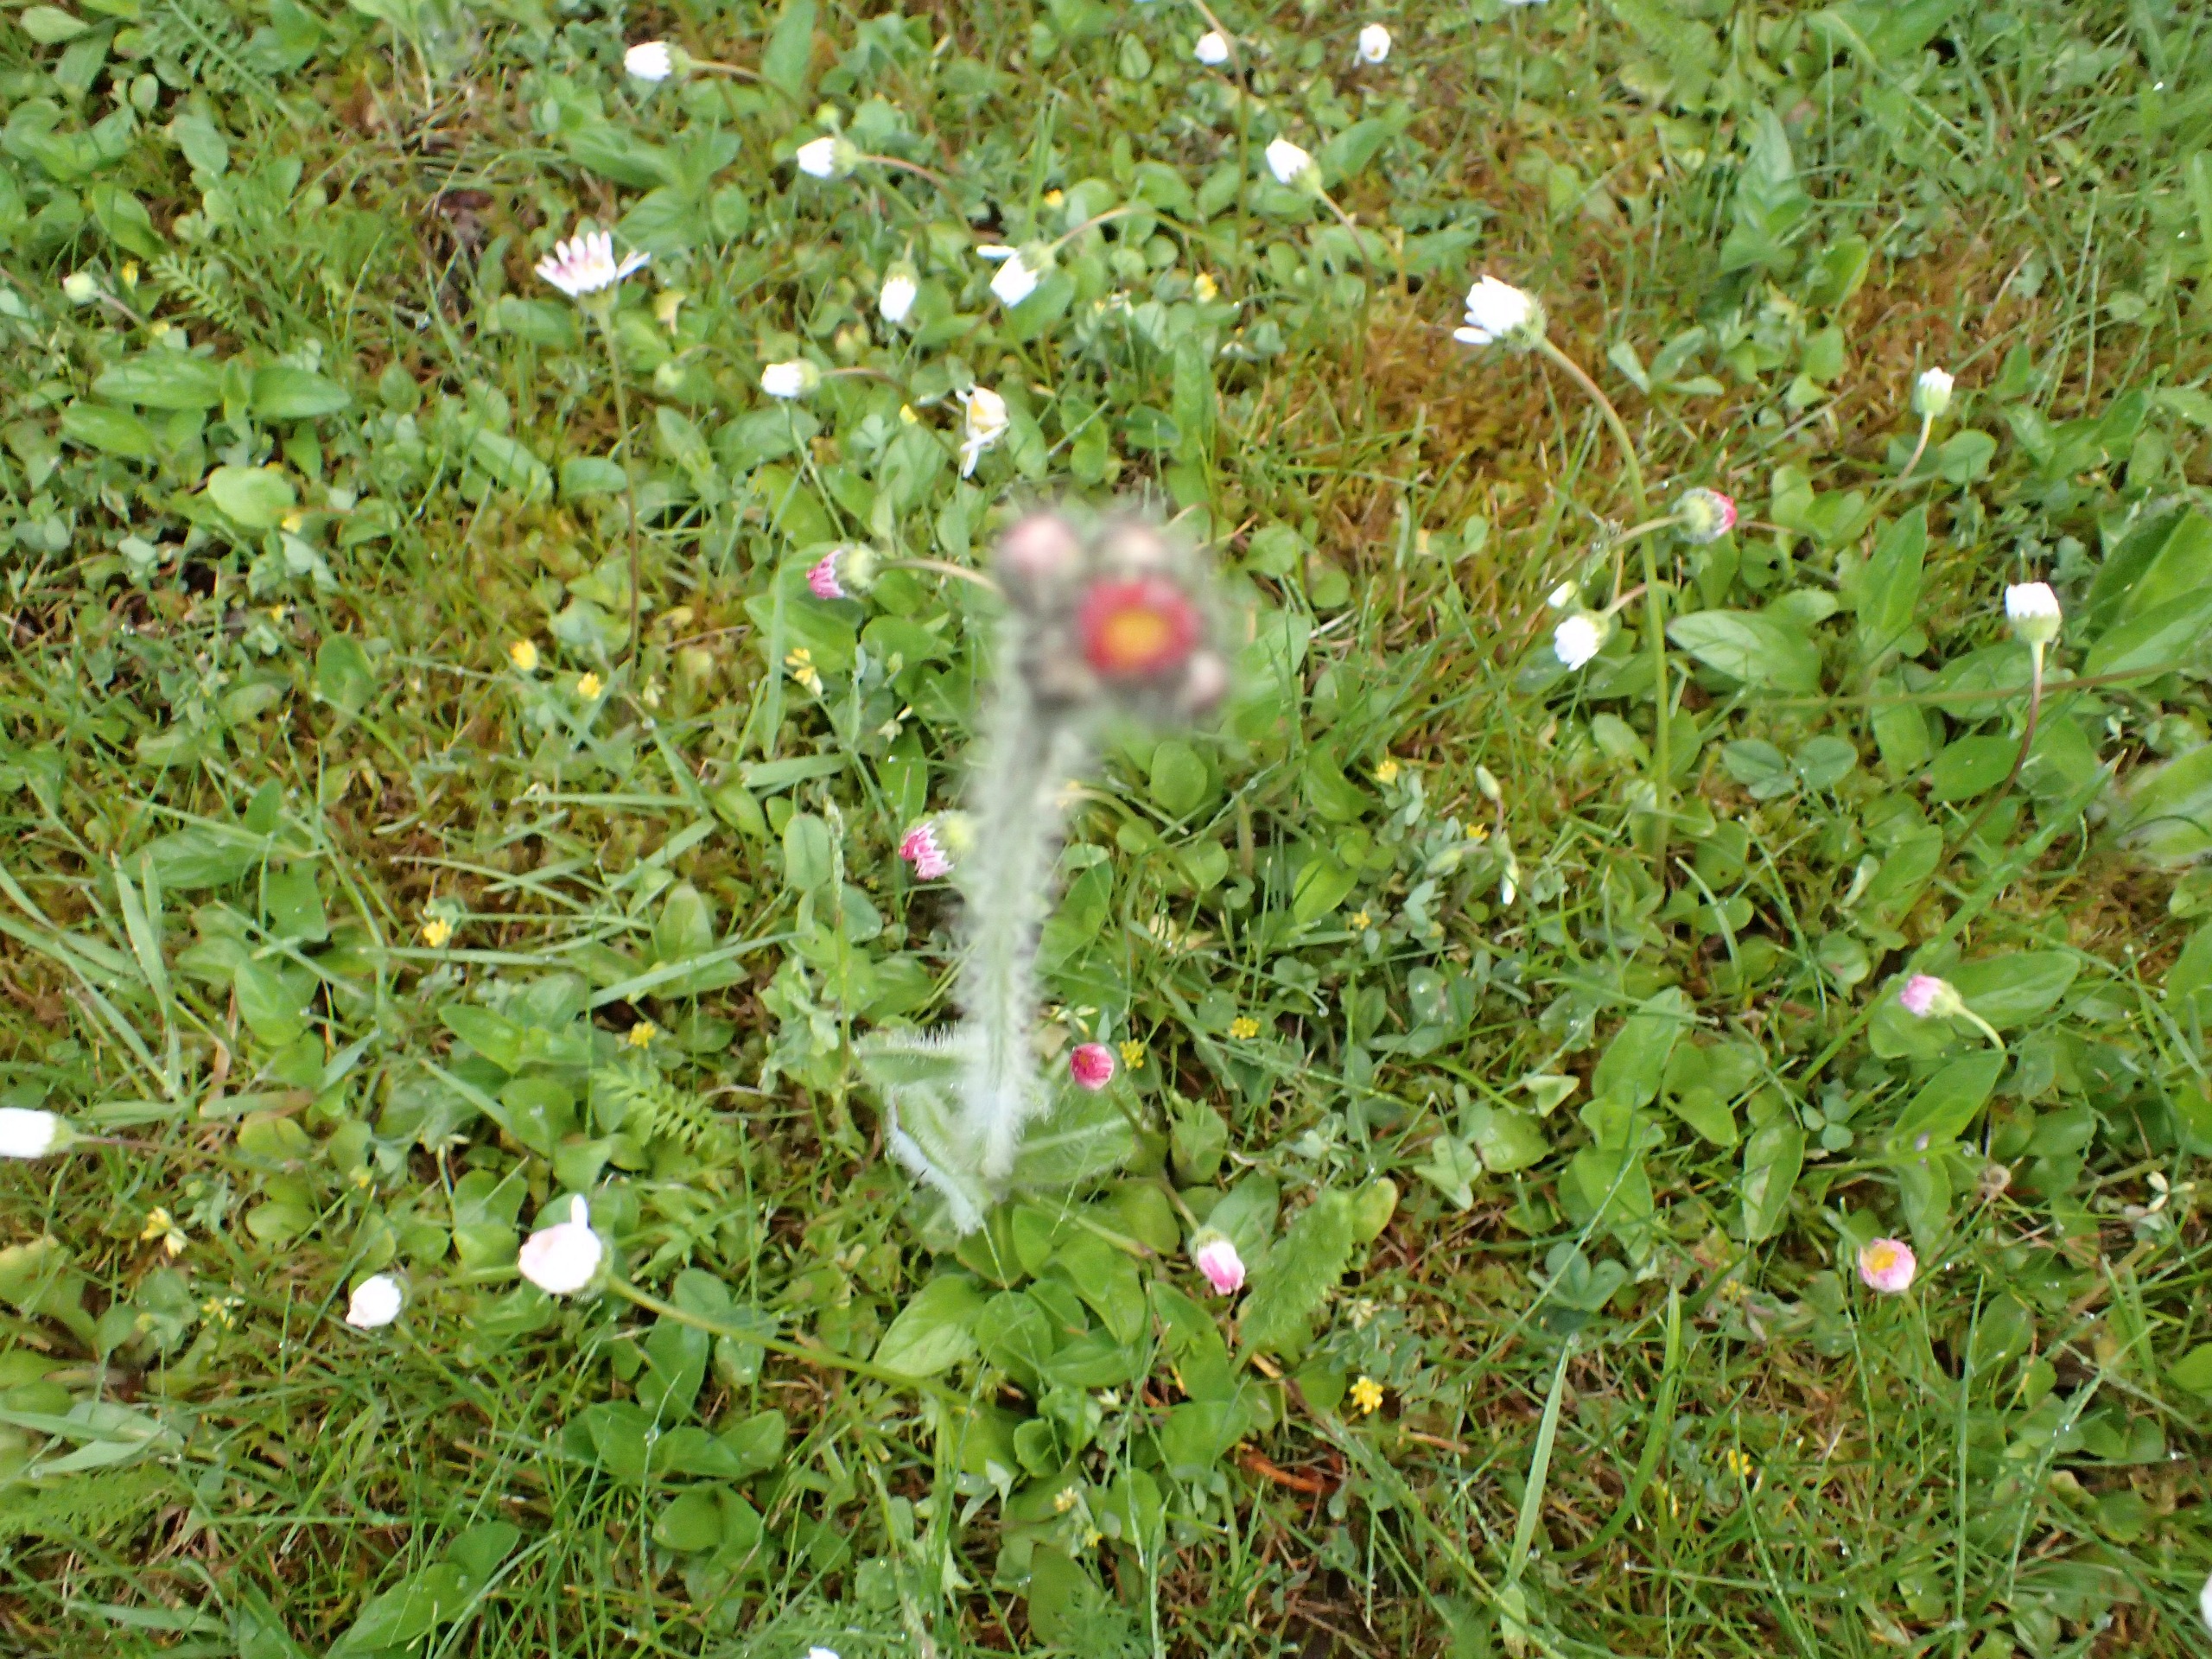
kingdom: Plantae
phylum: Tracheophyta
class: Magnoliopsida
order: Asterales
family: Asteraceae
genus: Pilosella
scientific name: Pilosella aurantiaca
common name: Pomerans-høgeurt
